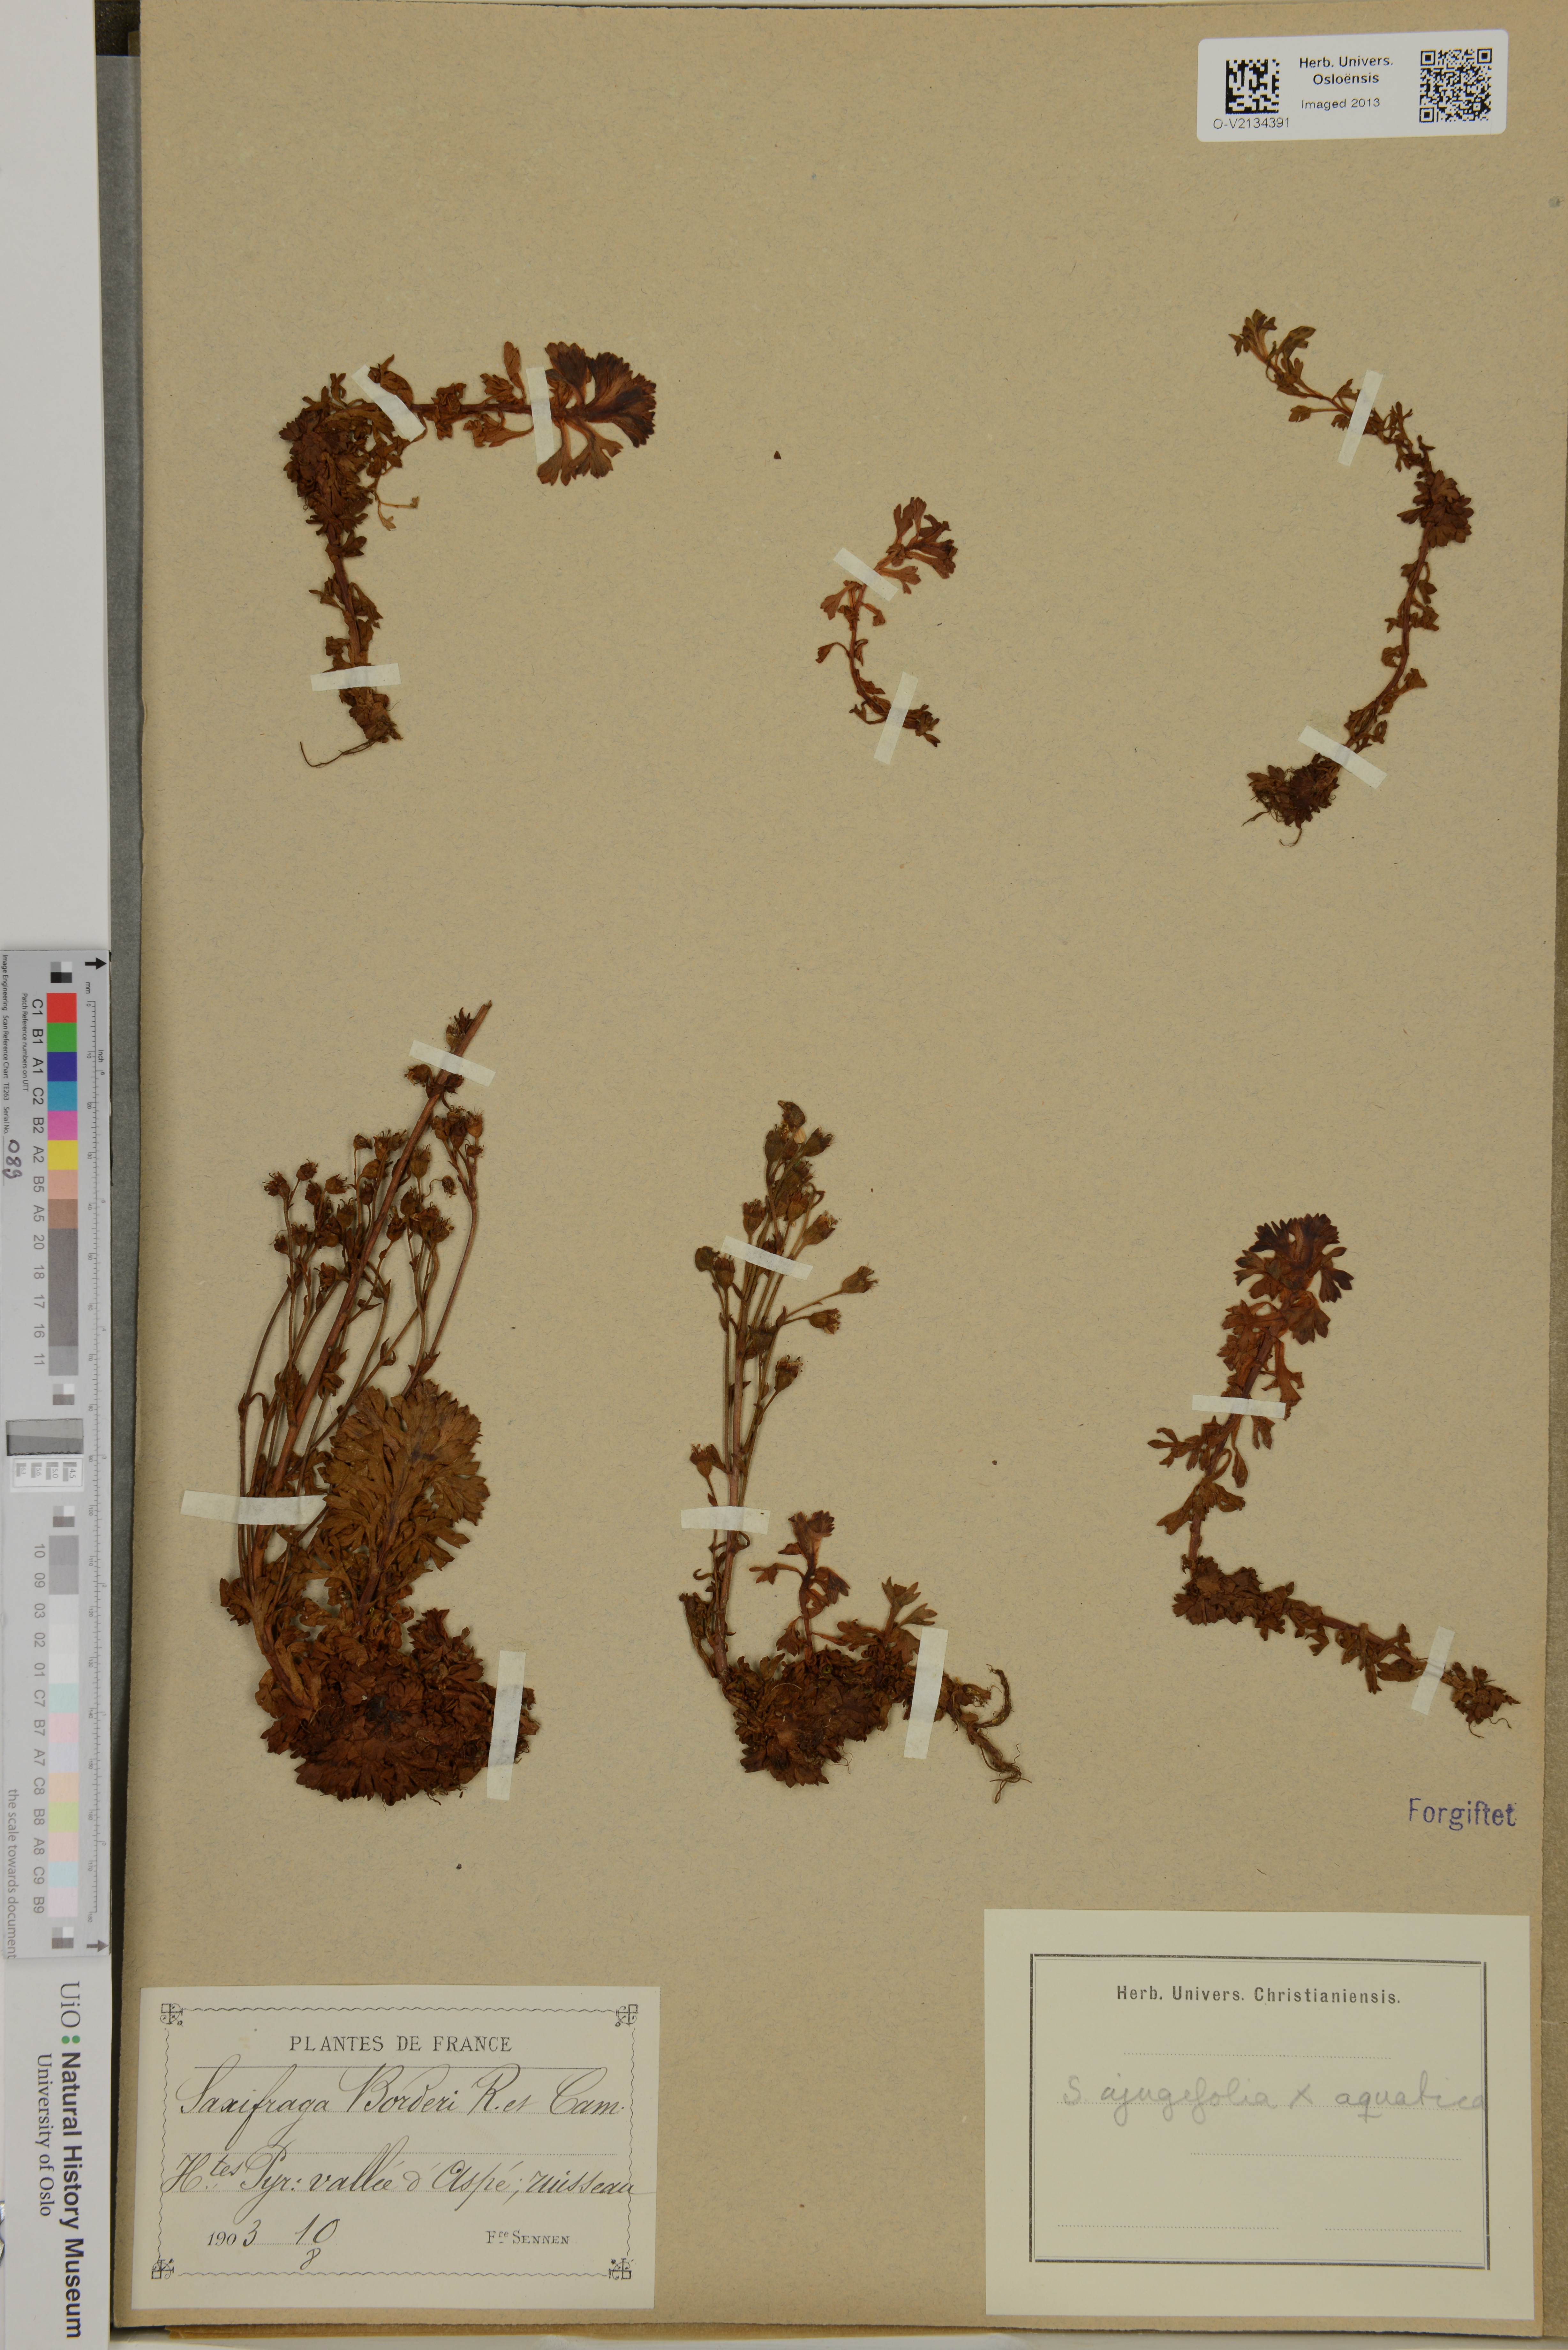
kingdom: Plantae
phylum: Tracheophyta
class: Magnoliopsida
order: Saxifragales
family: Saxifragaceae
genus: Saxifraga
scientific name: Saxifraga
